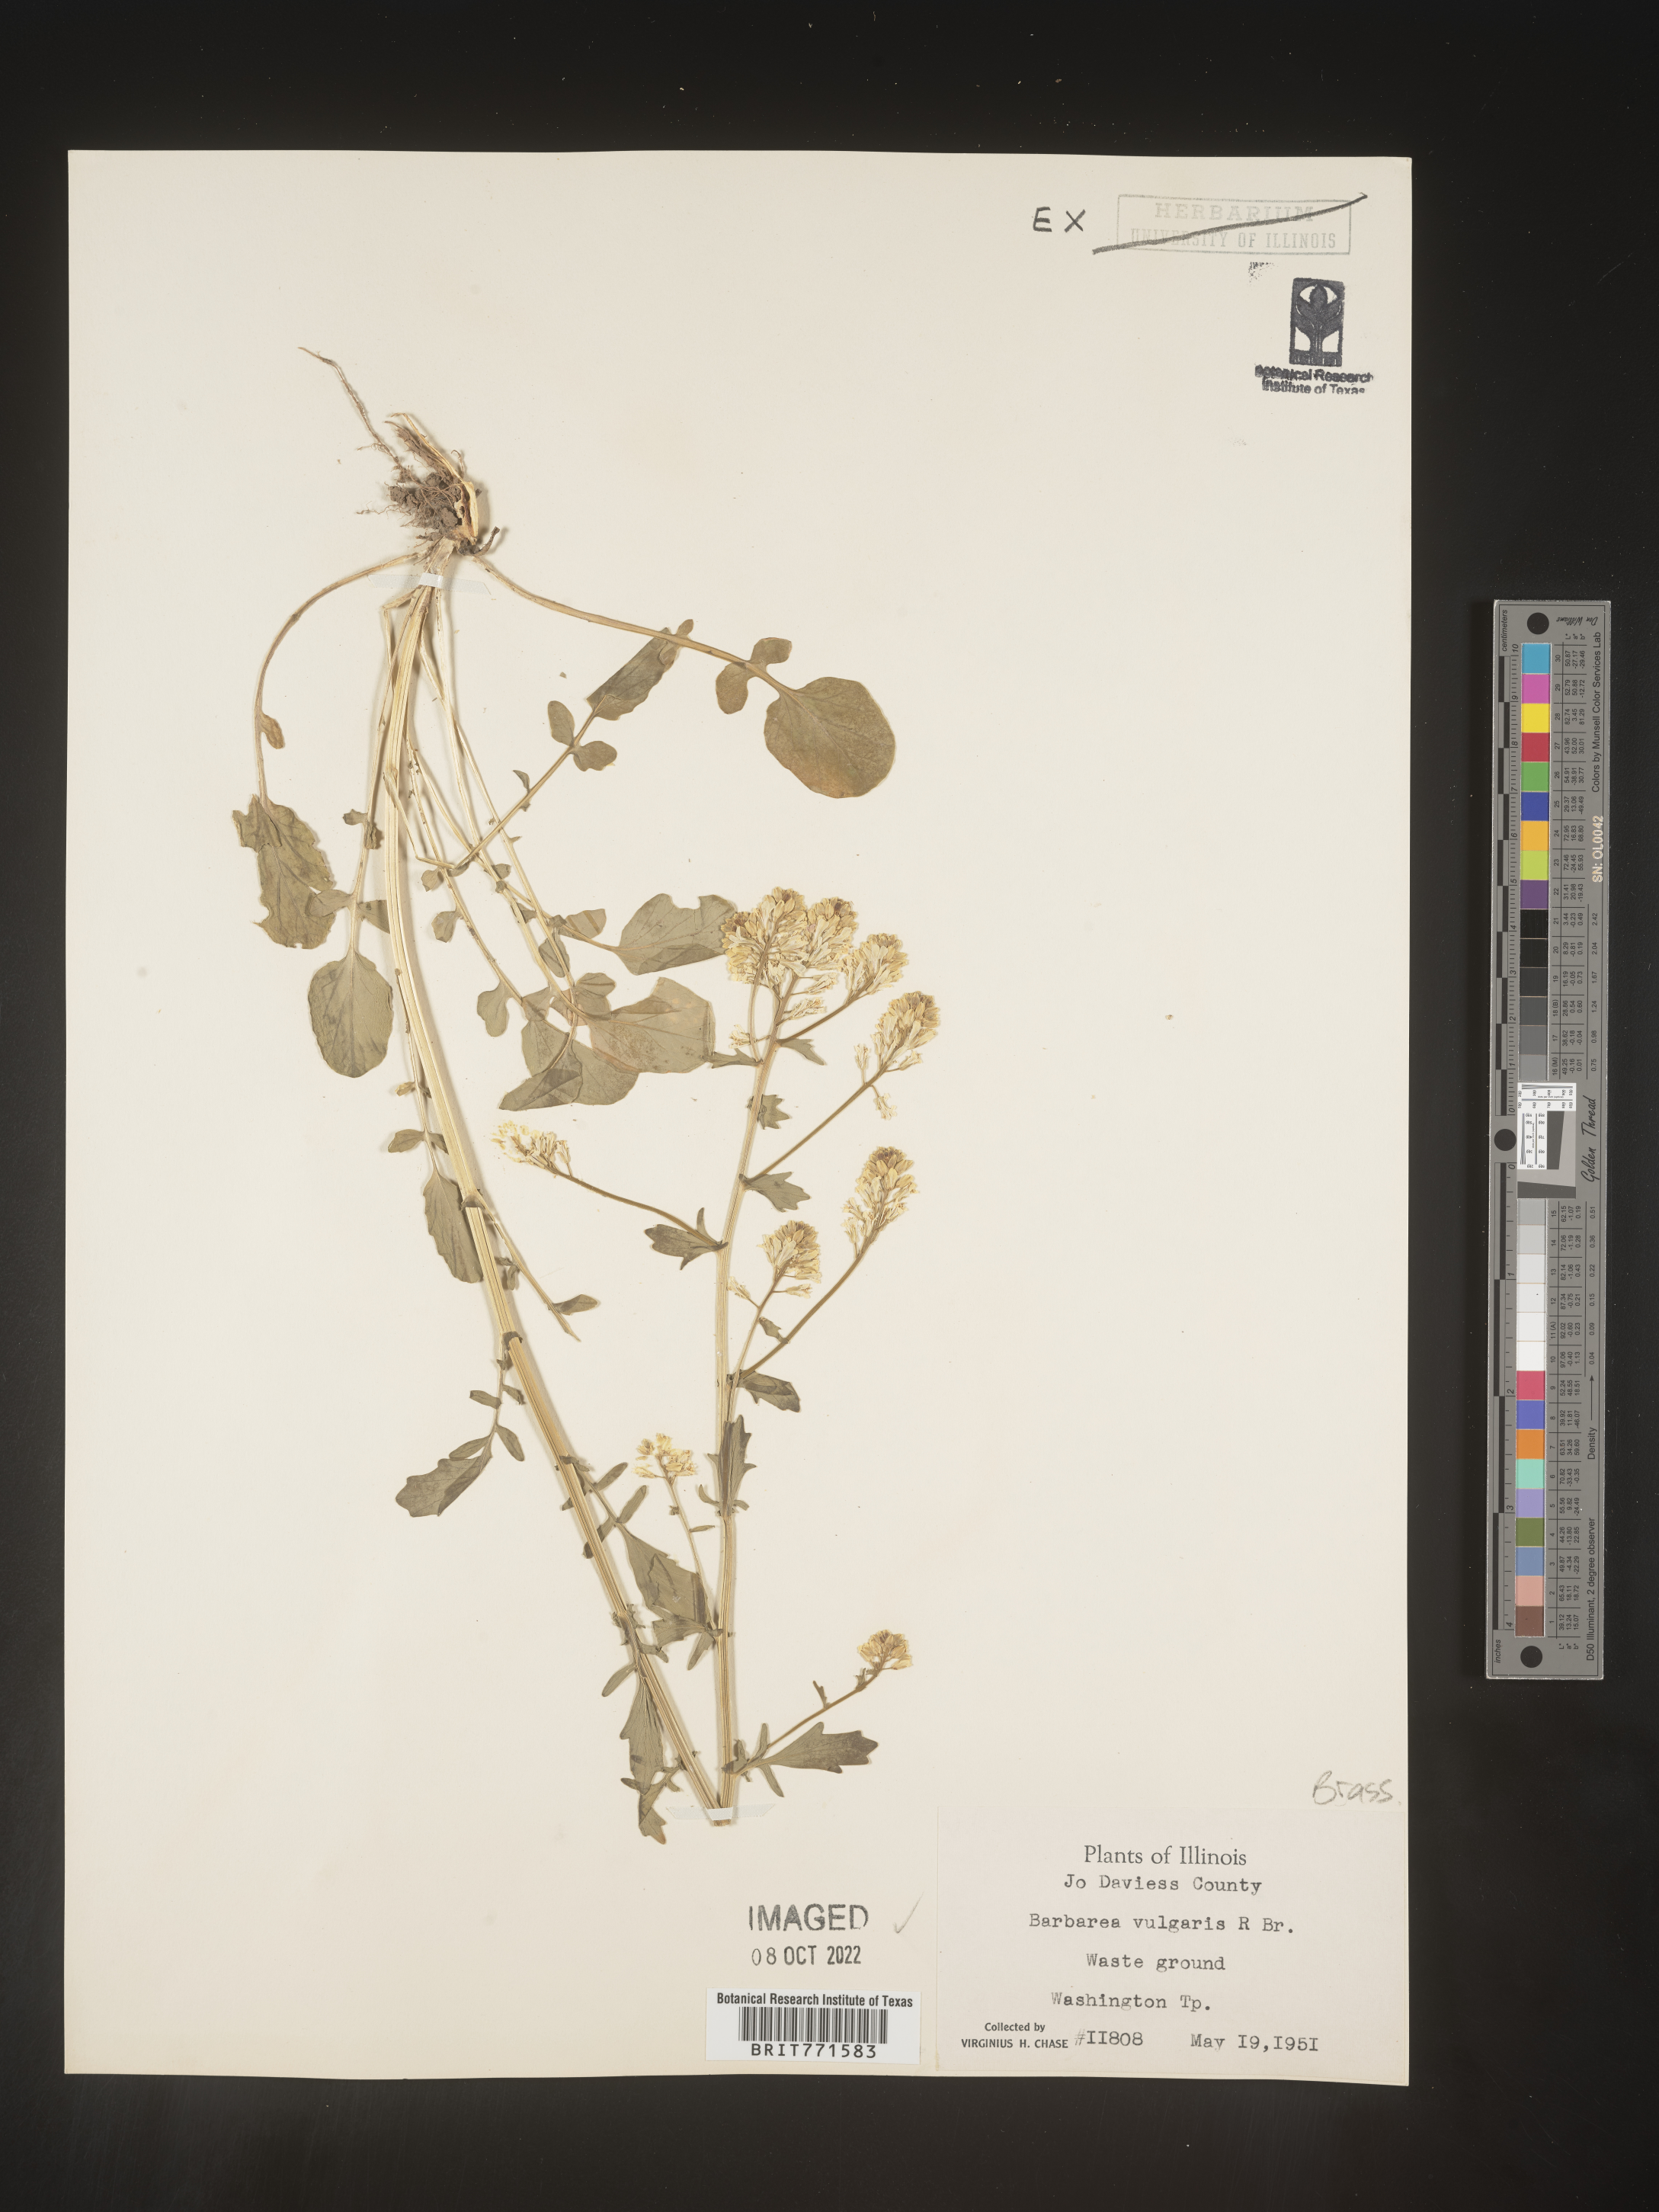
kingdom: Plantae
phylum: Tracheophyta
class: Magnoliopsida
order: Brassicales
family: Brassicaceae
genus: Barbarea
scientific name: Barbarea vulgaris
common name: Cressy-greens
